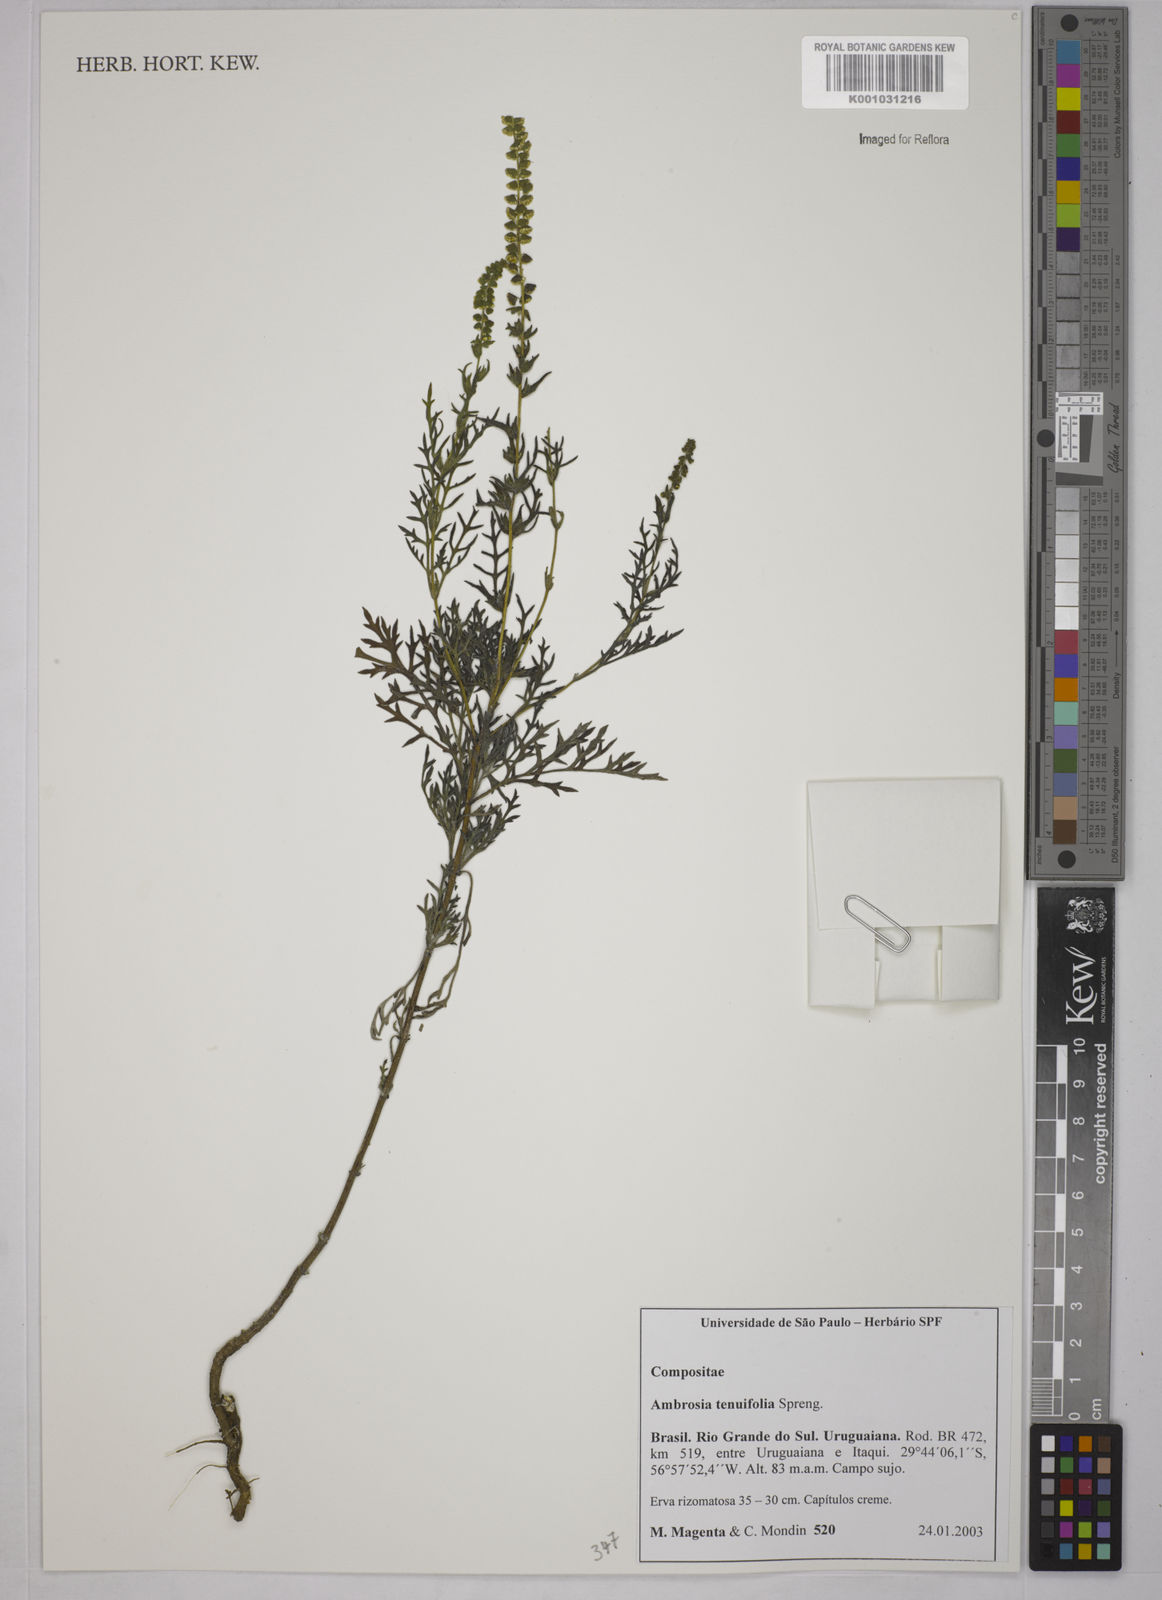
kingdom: Plantae
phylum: Tracheophyta
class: Magnoliopsida
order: Asterales
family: Asteraceae
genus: Ambrosia
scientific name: Ambrosia
